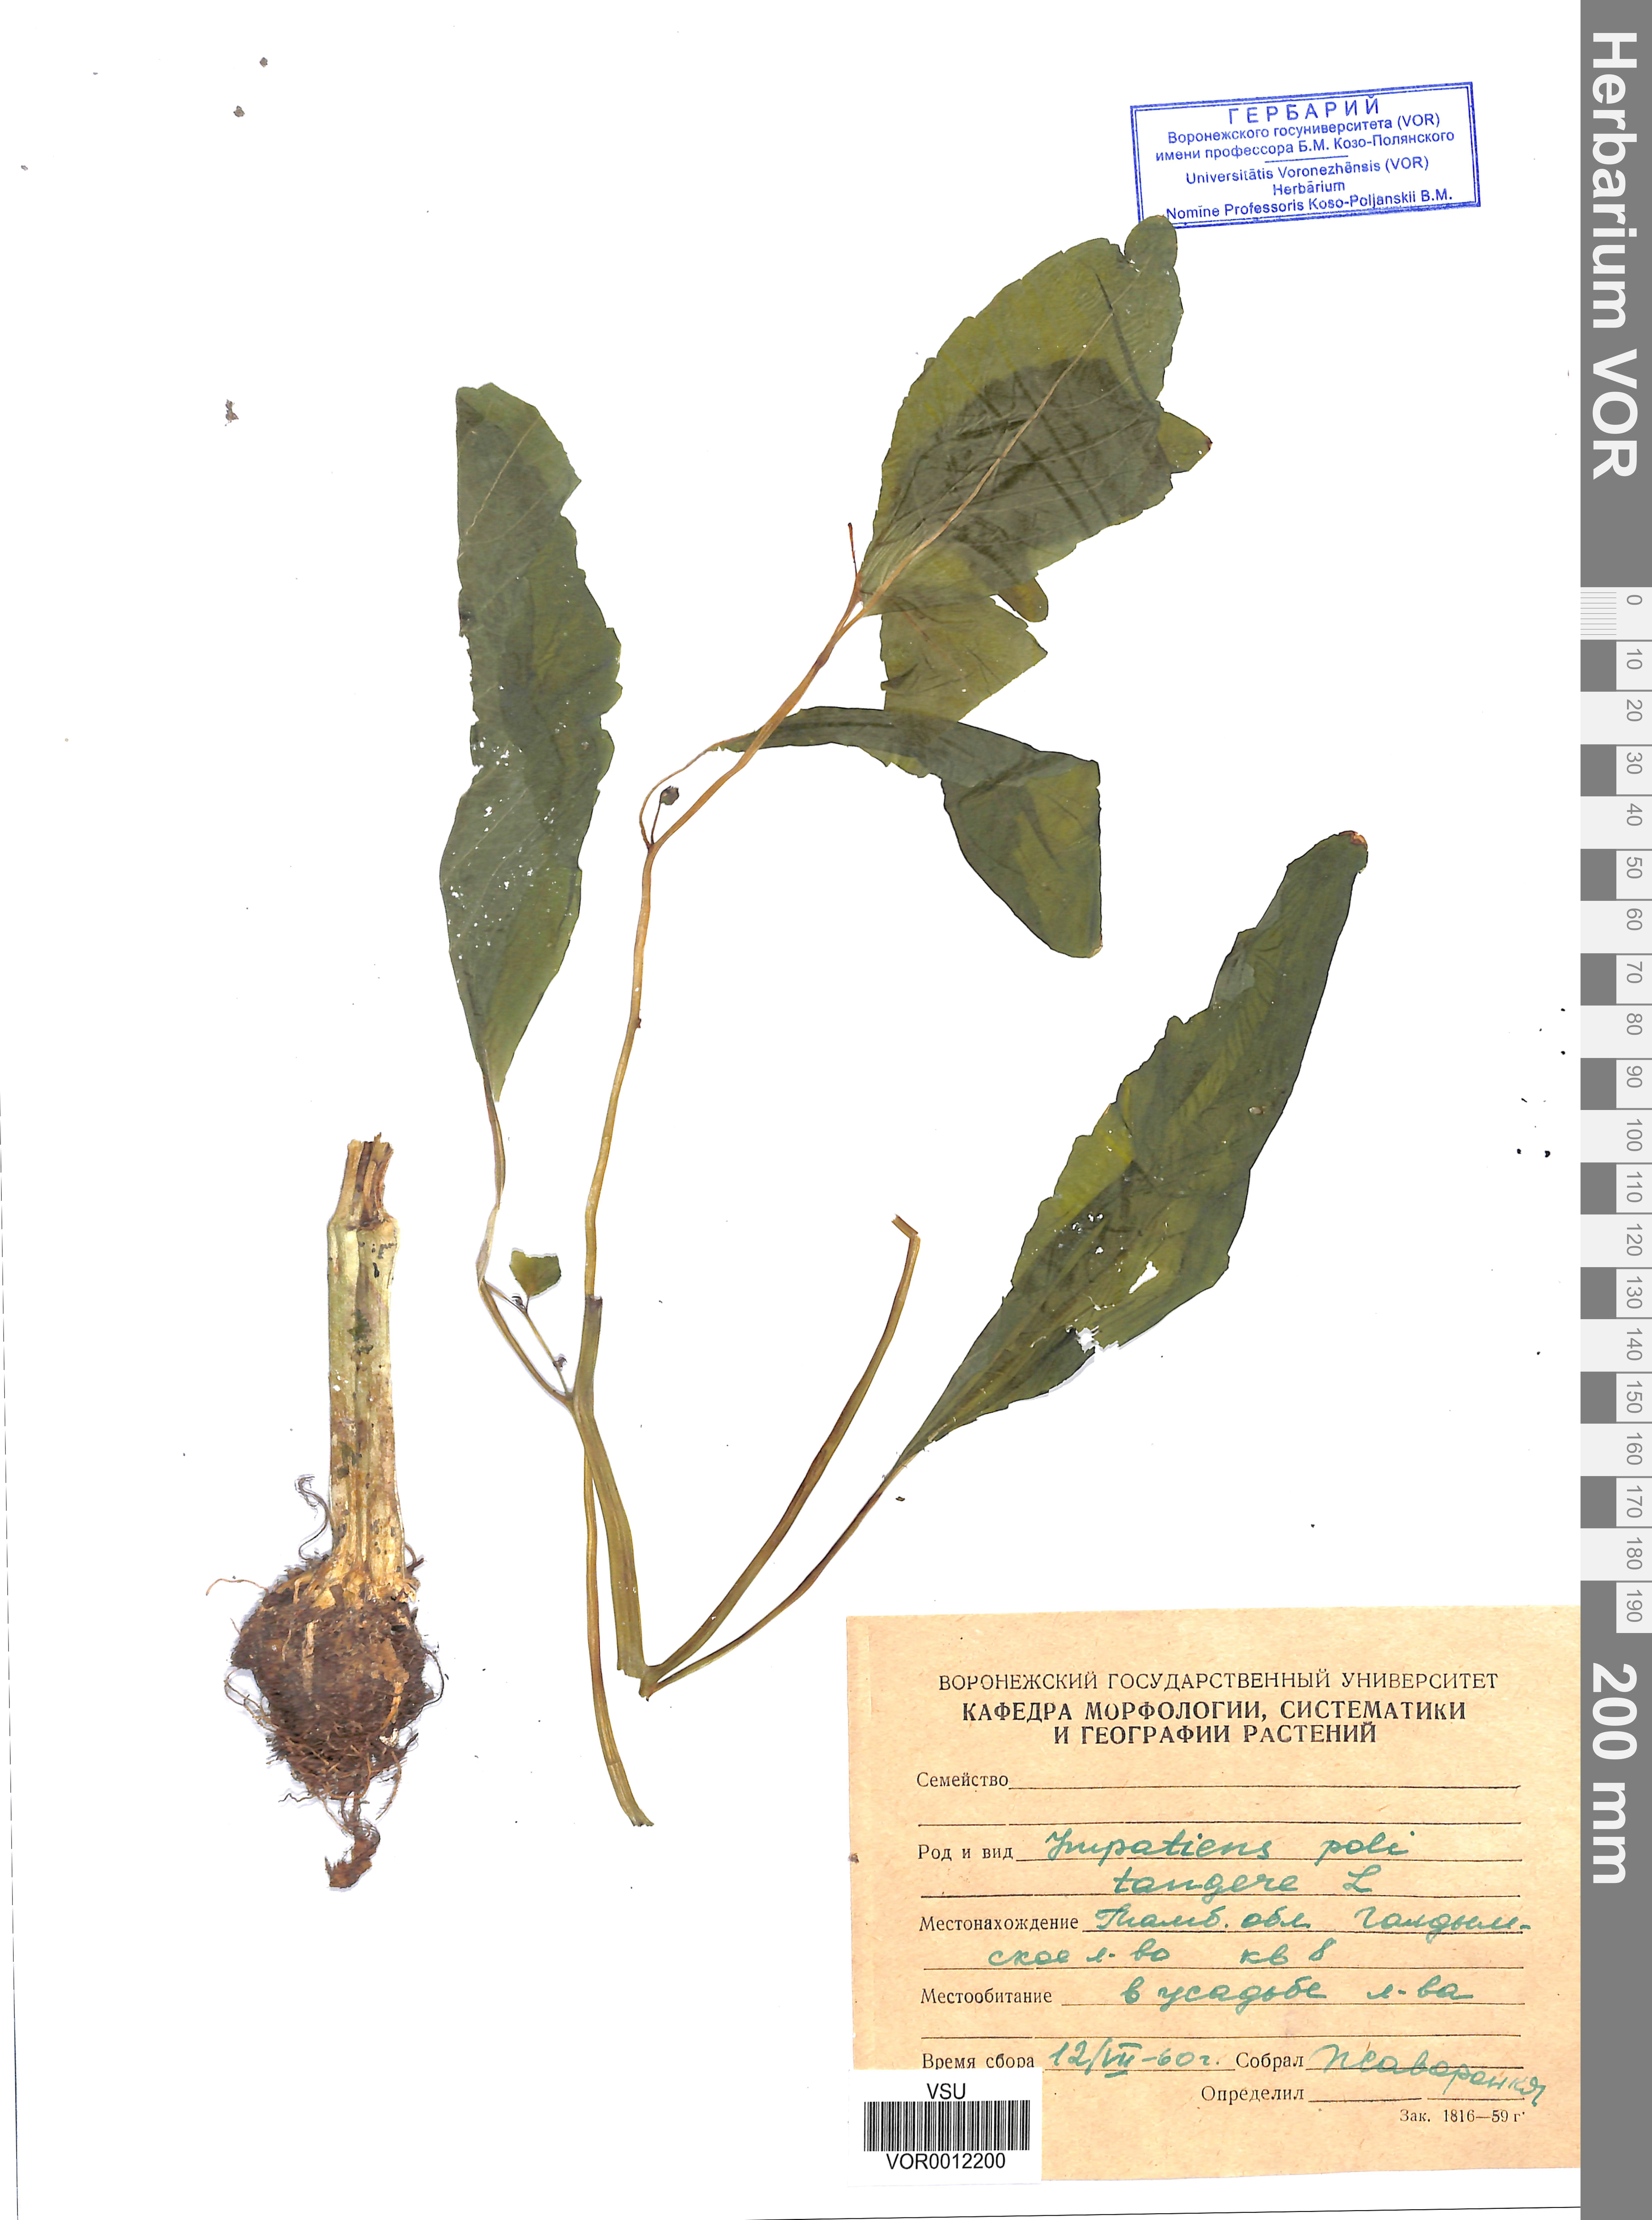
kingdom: Plantae
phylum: Tracheophyta
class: Magnoliopsida
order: Ericales
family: Balsaminaceae
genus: Impatiens
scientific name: Impatiens noli-tangere
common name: Touch-me-not balsam
